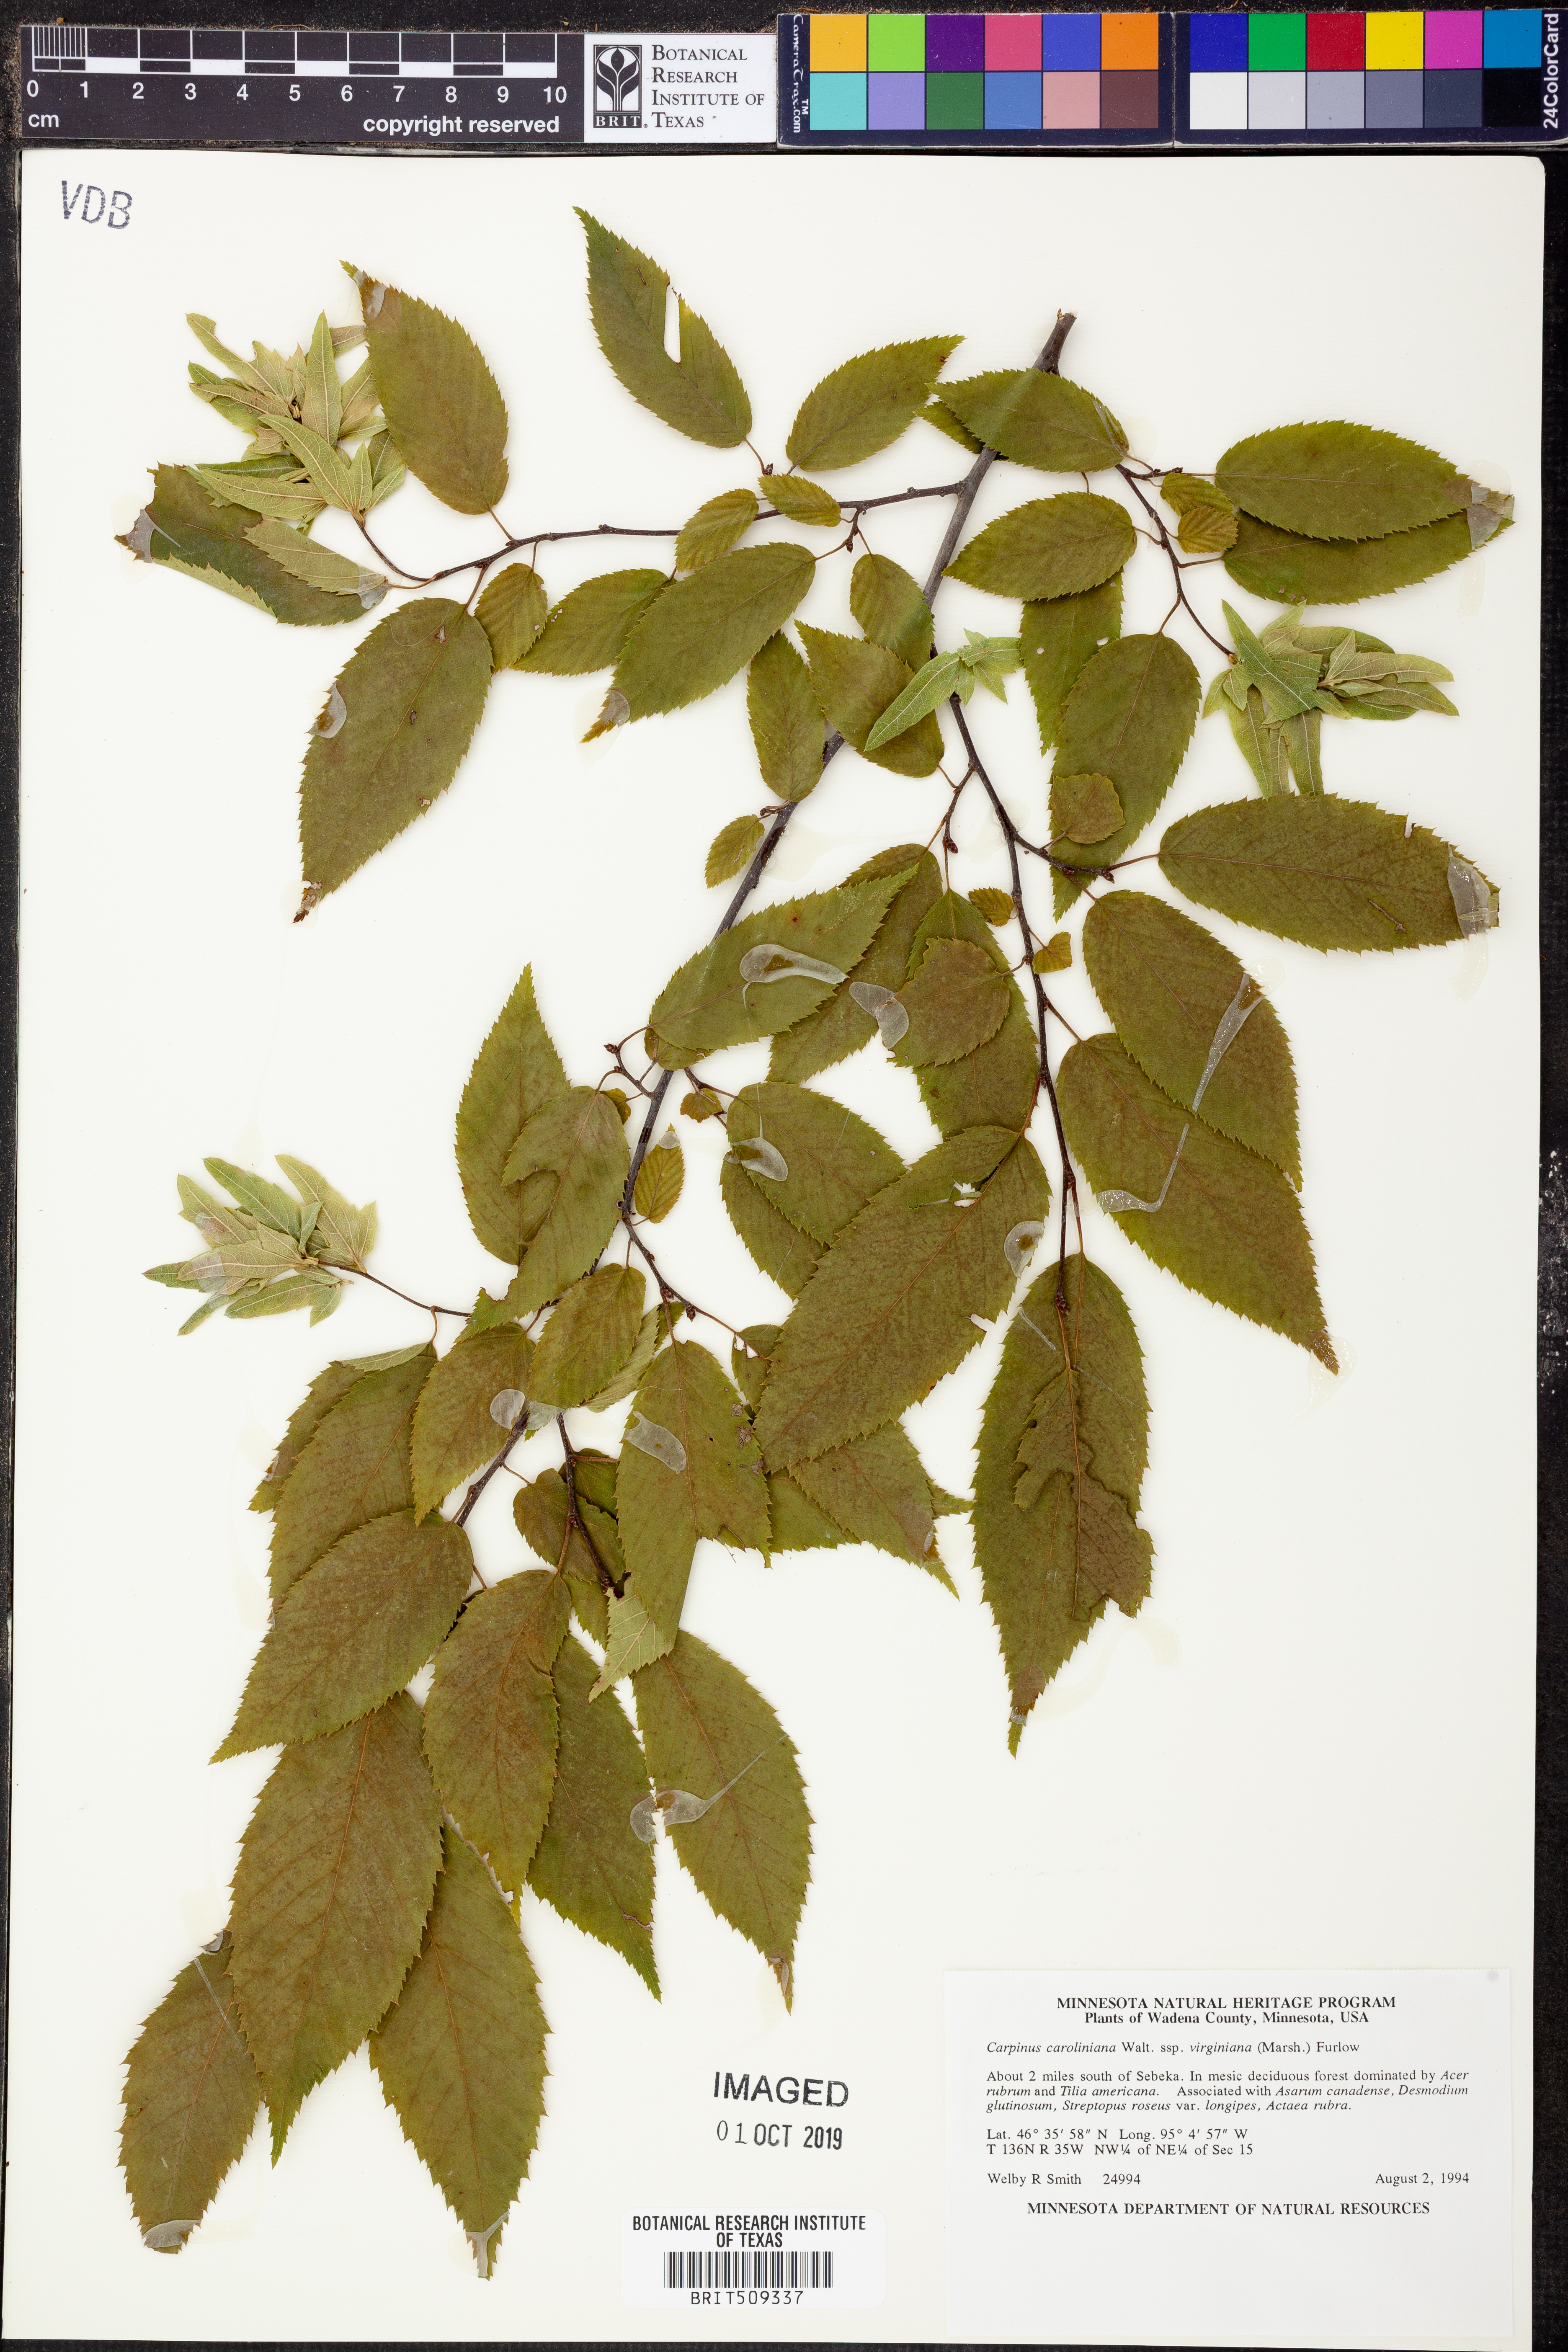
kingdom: Plantae
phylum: Tracheophyta
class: Magnoliopsida
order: Fagales
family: Betulaceae
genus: Carpinus
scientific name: Carpinus caroliniana
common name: American hornbeam
